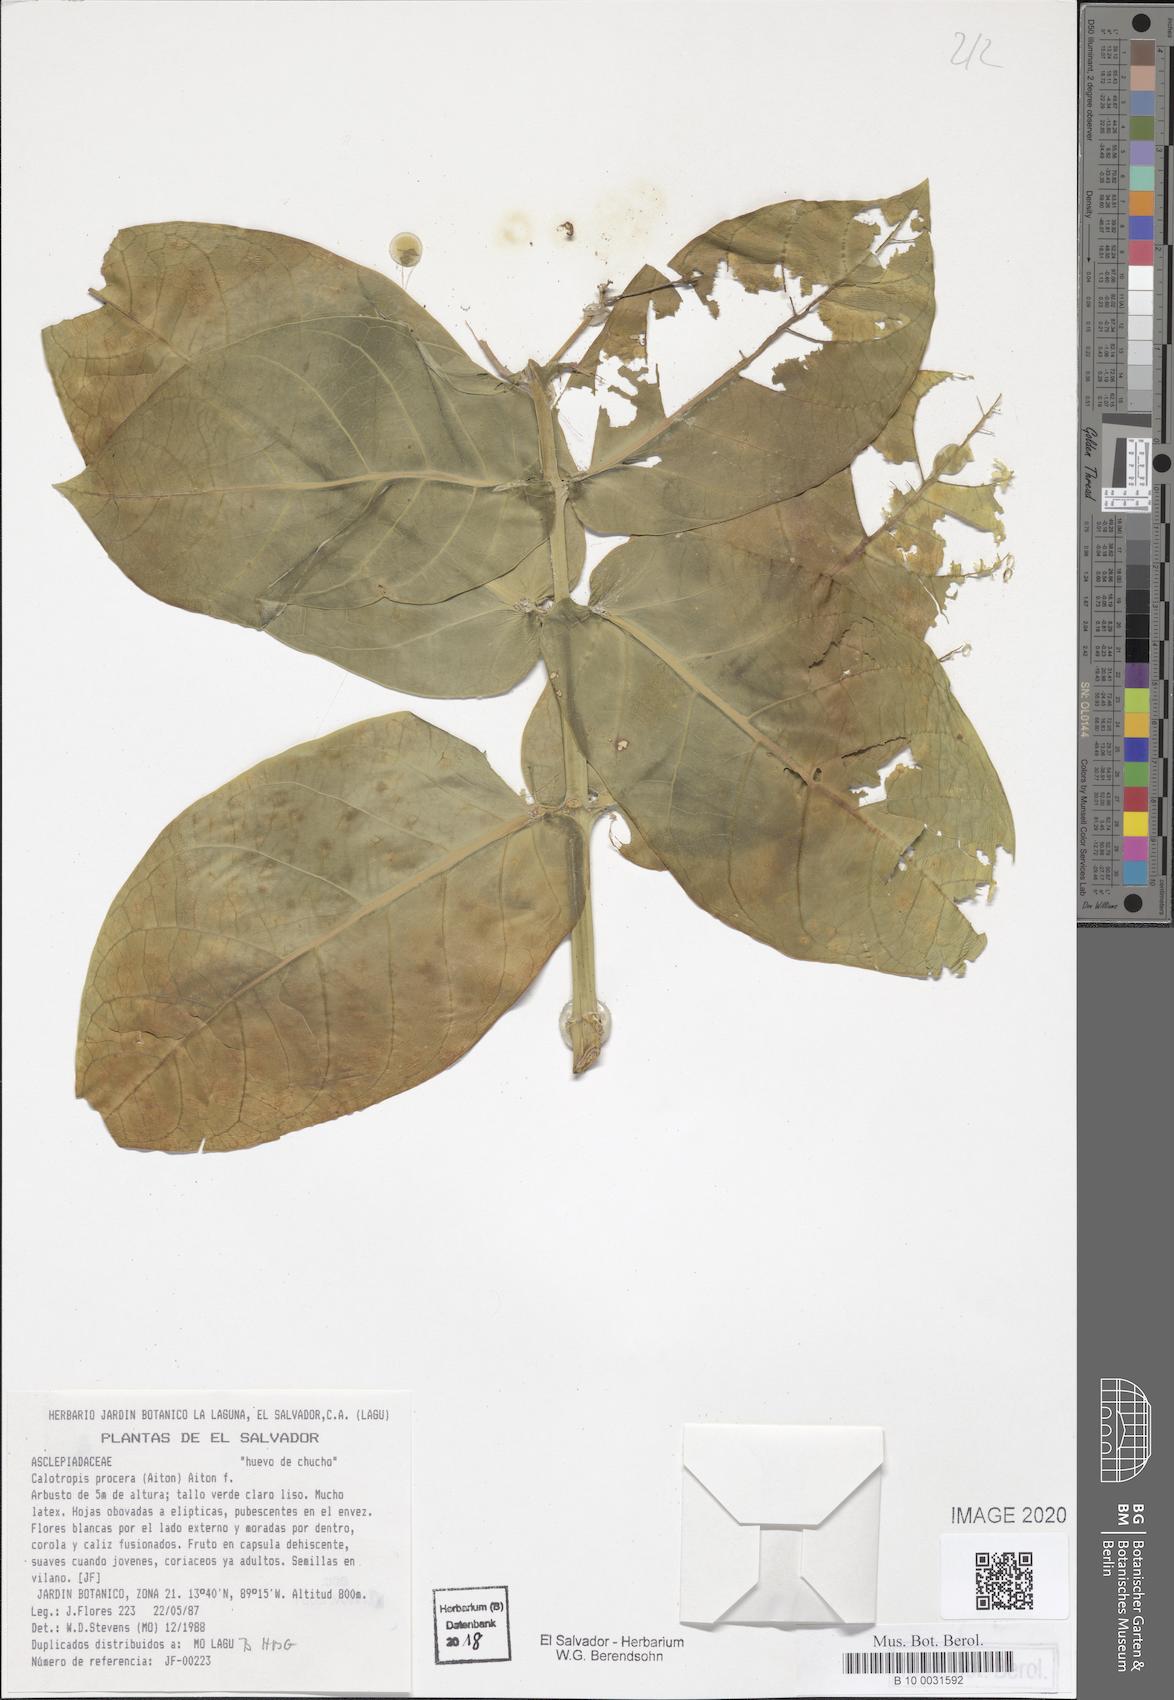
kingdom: Plantae
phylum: Tracheophyta
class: Magnoliopsida
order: Gentianales
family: Apocynaceae
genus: Calotropis
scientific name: Calotropis procera
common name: Roostertree
